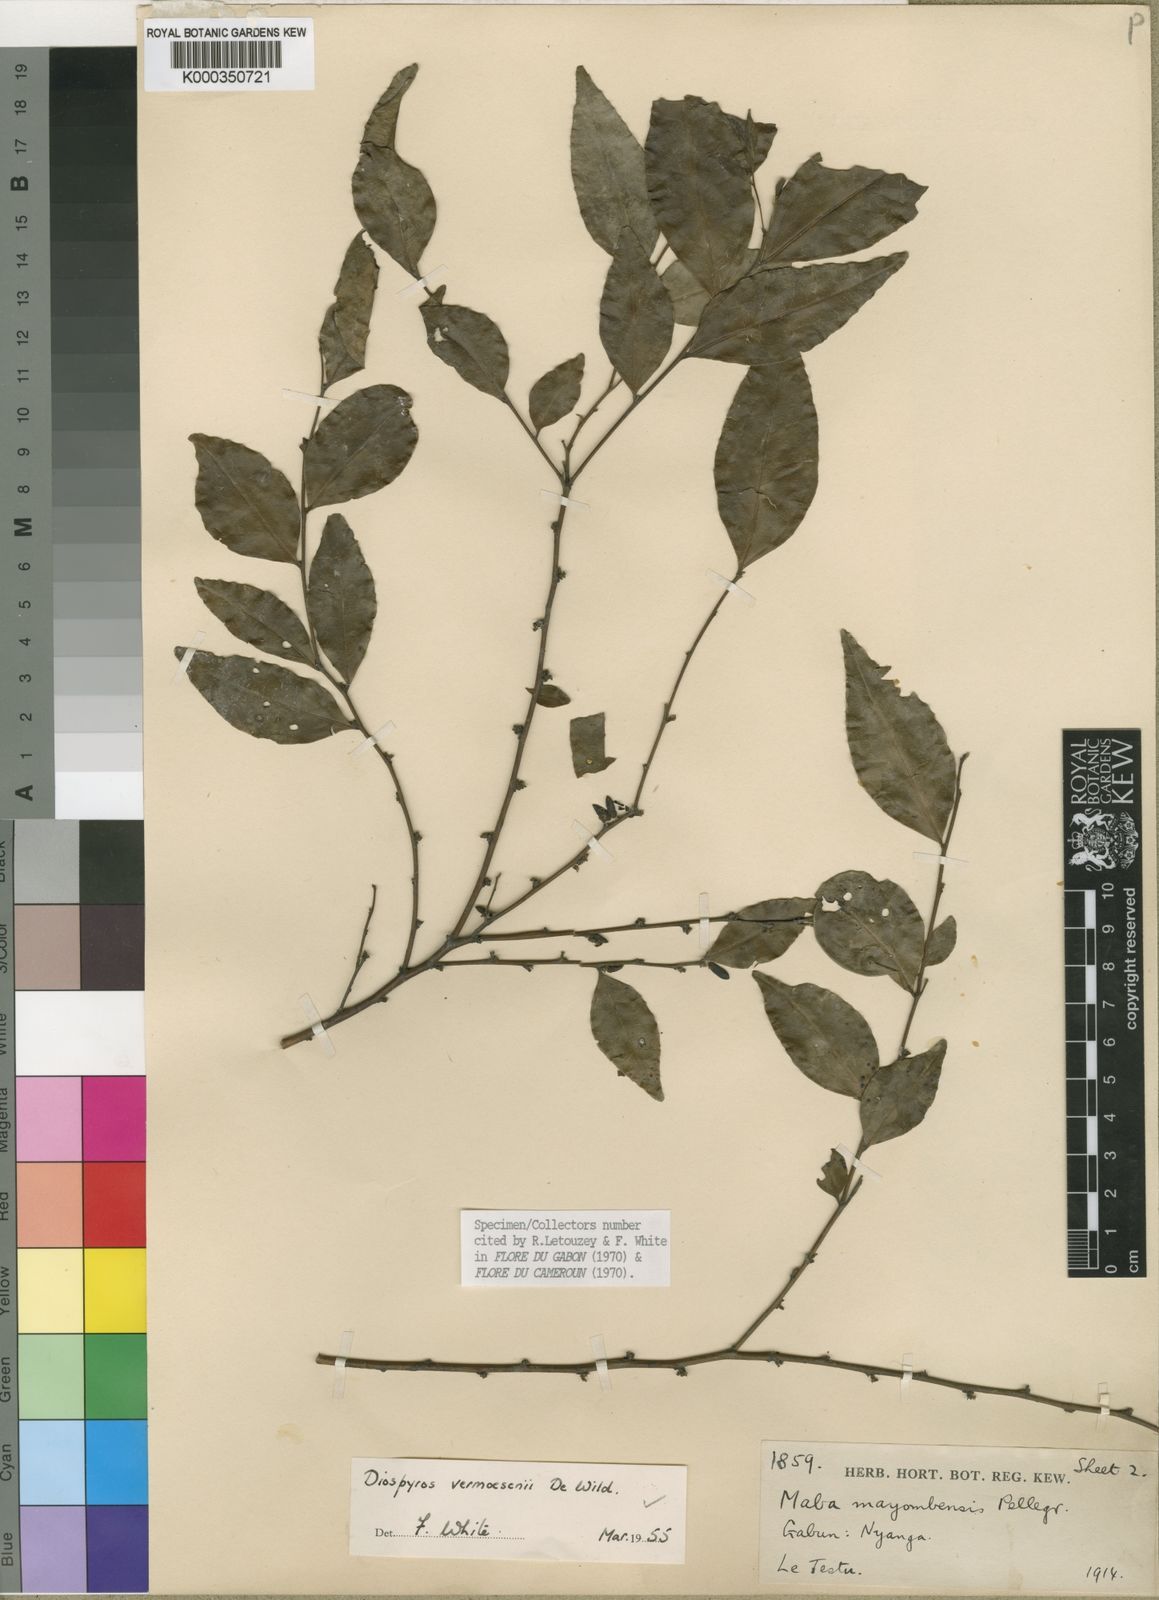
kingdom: Plantae
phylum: Tracheophyta
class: Magnoliopsida
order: Ericales
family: Ebenaceae
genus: Diospyros
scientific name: Diospyros vermoesenii
